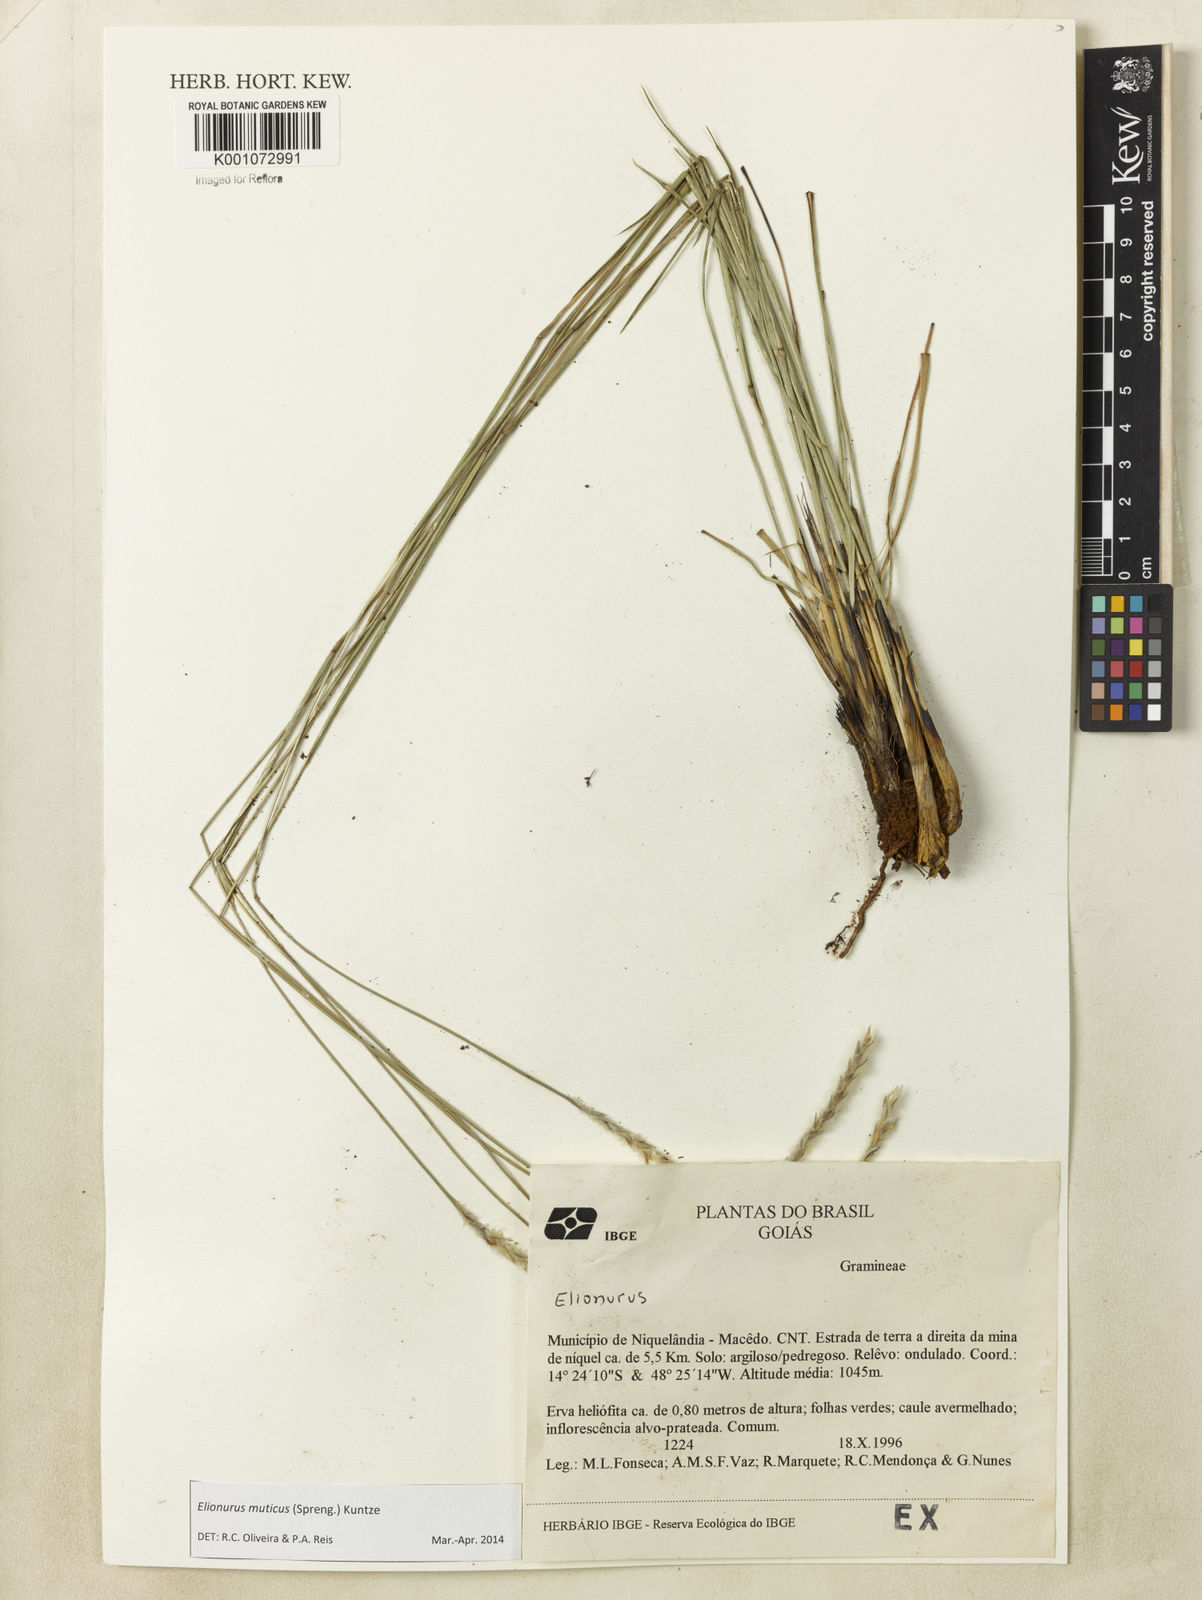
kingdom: Plantae
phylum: Tracheophyta
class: Liliopsida
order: Poales
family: Poaceae
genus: Elionurus
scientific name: Elionurus muticus
